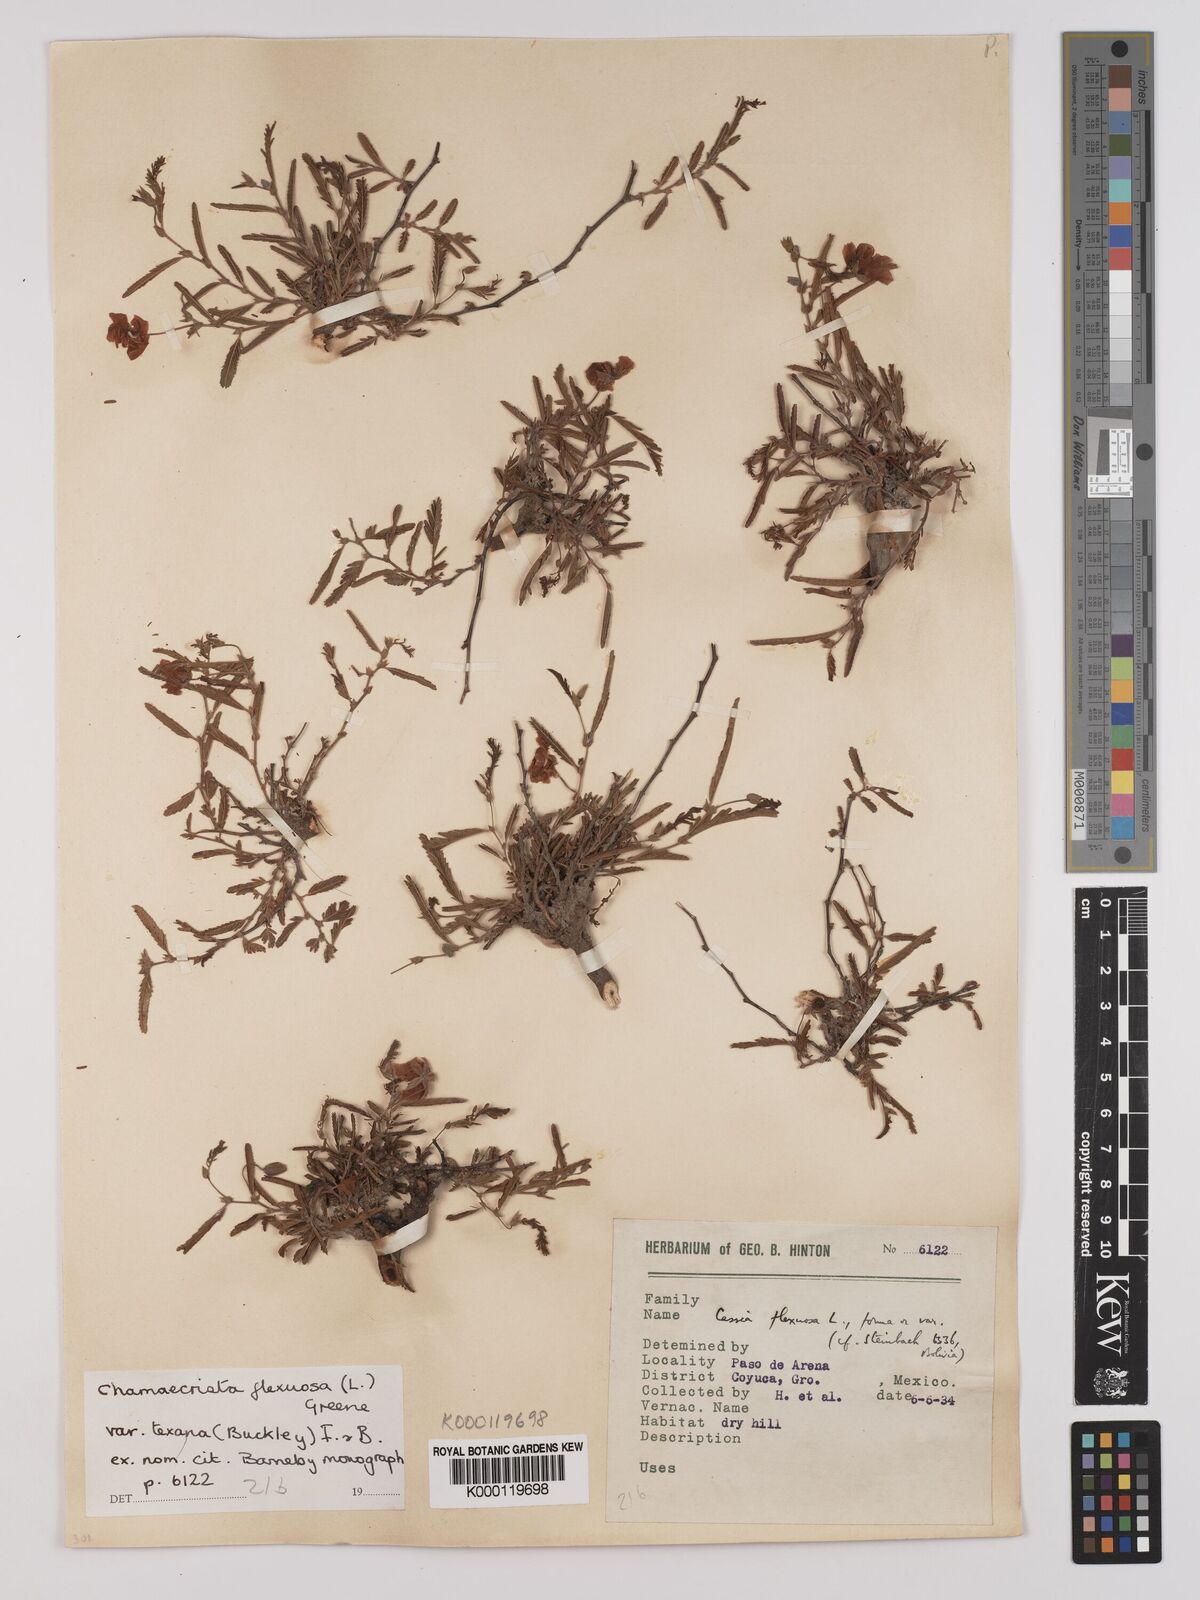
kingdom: Plantae
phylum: Tracheophyta
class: Magnoliopsida
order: Fabales
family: Fabaceae
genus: Chamaecrista
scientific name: Chamaecrista flexuosa
